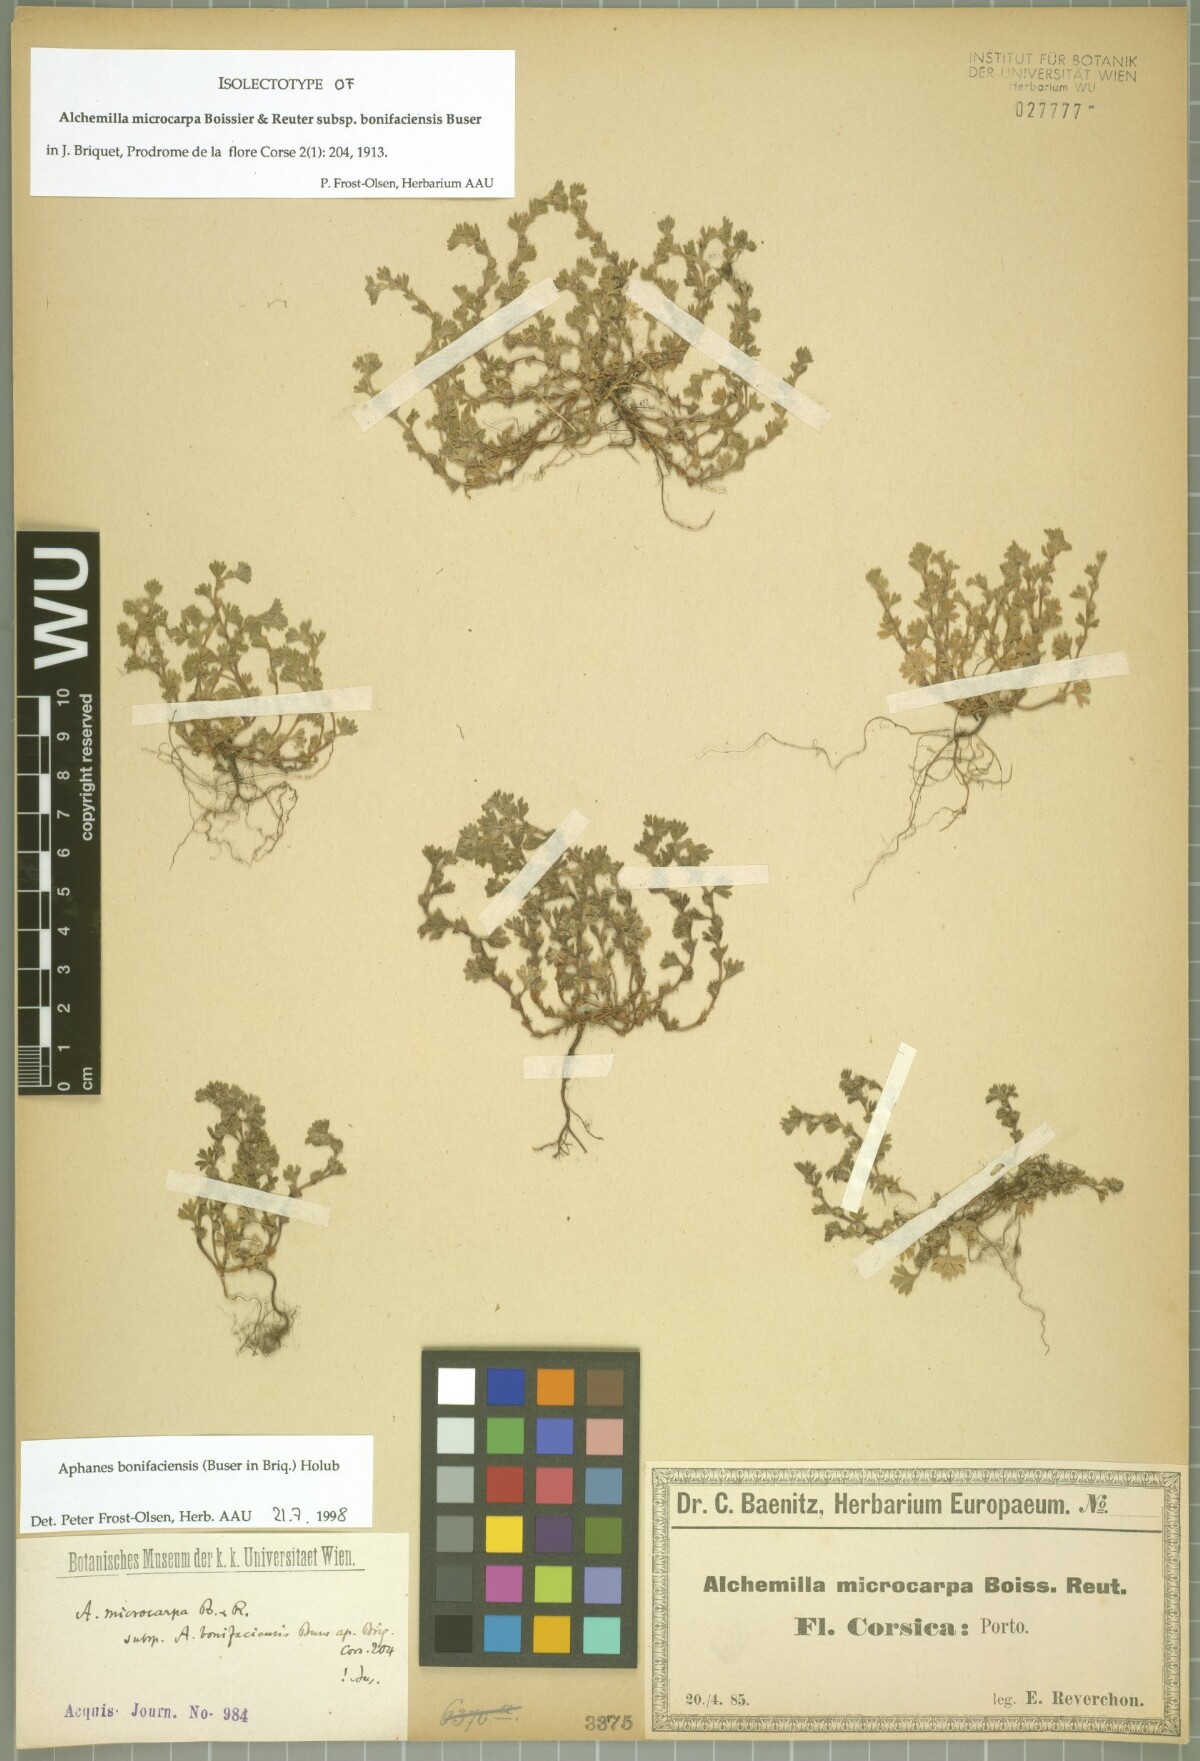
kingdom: Plantae
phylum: Tracheophyta
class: Magnoliopsida
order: Rosales
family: Rosaceae
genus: Aphanes
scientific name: Aphanes minutiflora
